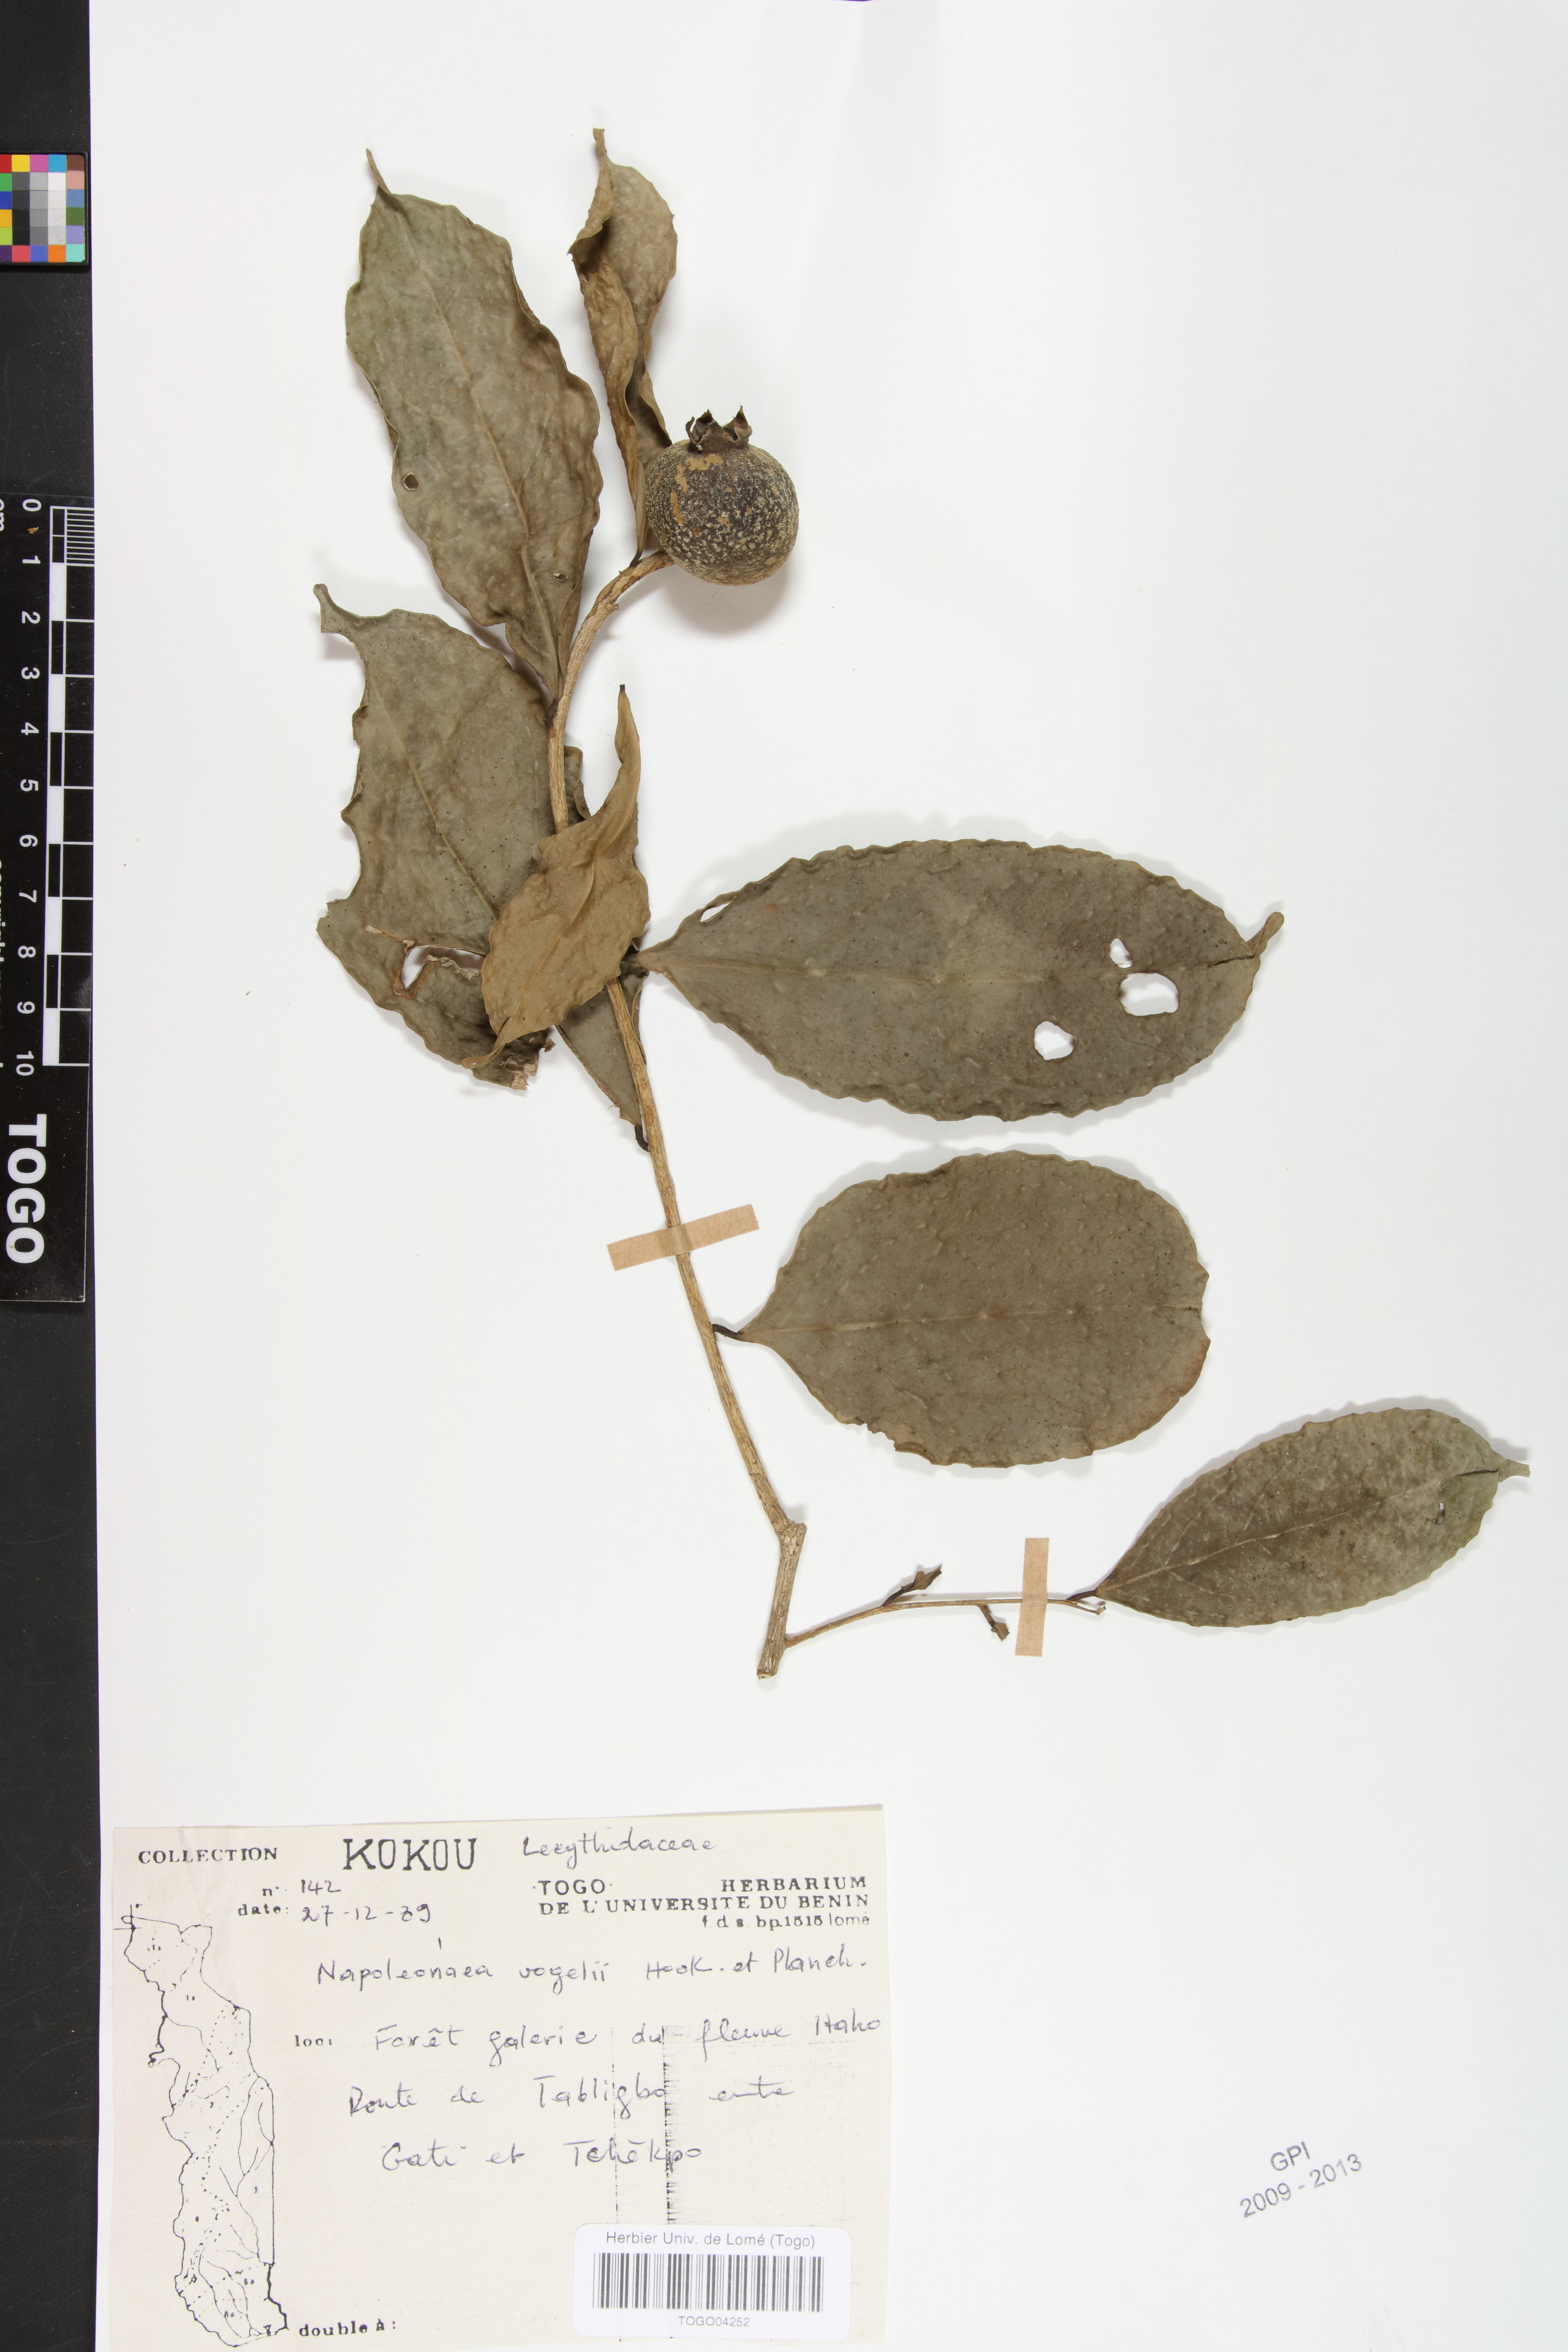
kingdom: Plantae
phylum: Tracheophyta
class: Magnoliopsida
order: Ericales
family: Lecythidaceae
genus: Napoleonaea
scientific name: Napoleonaea vogelii
